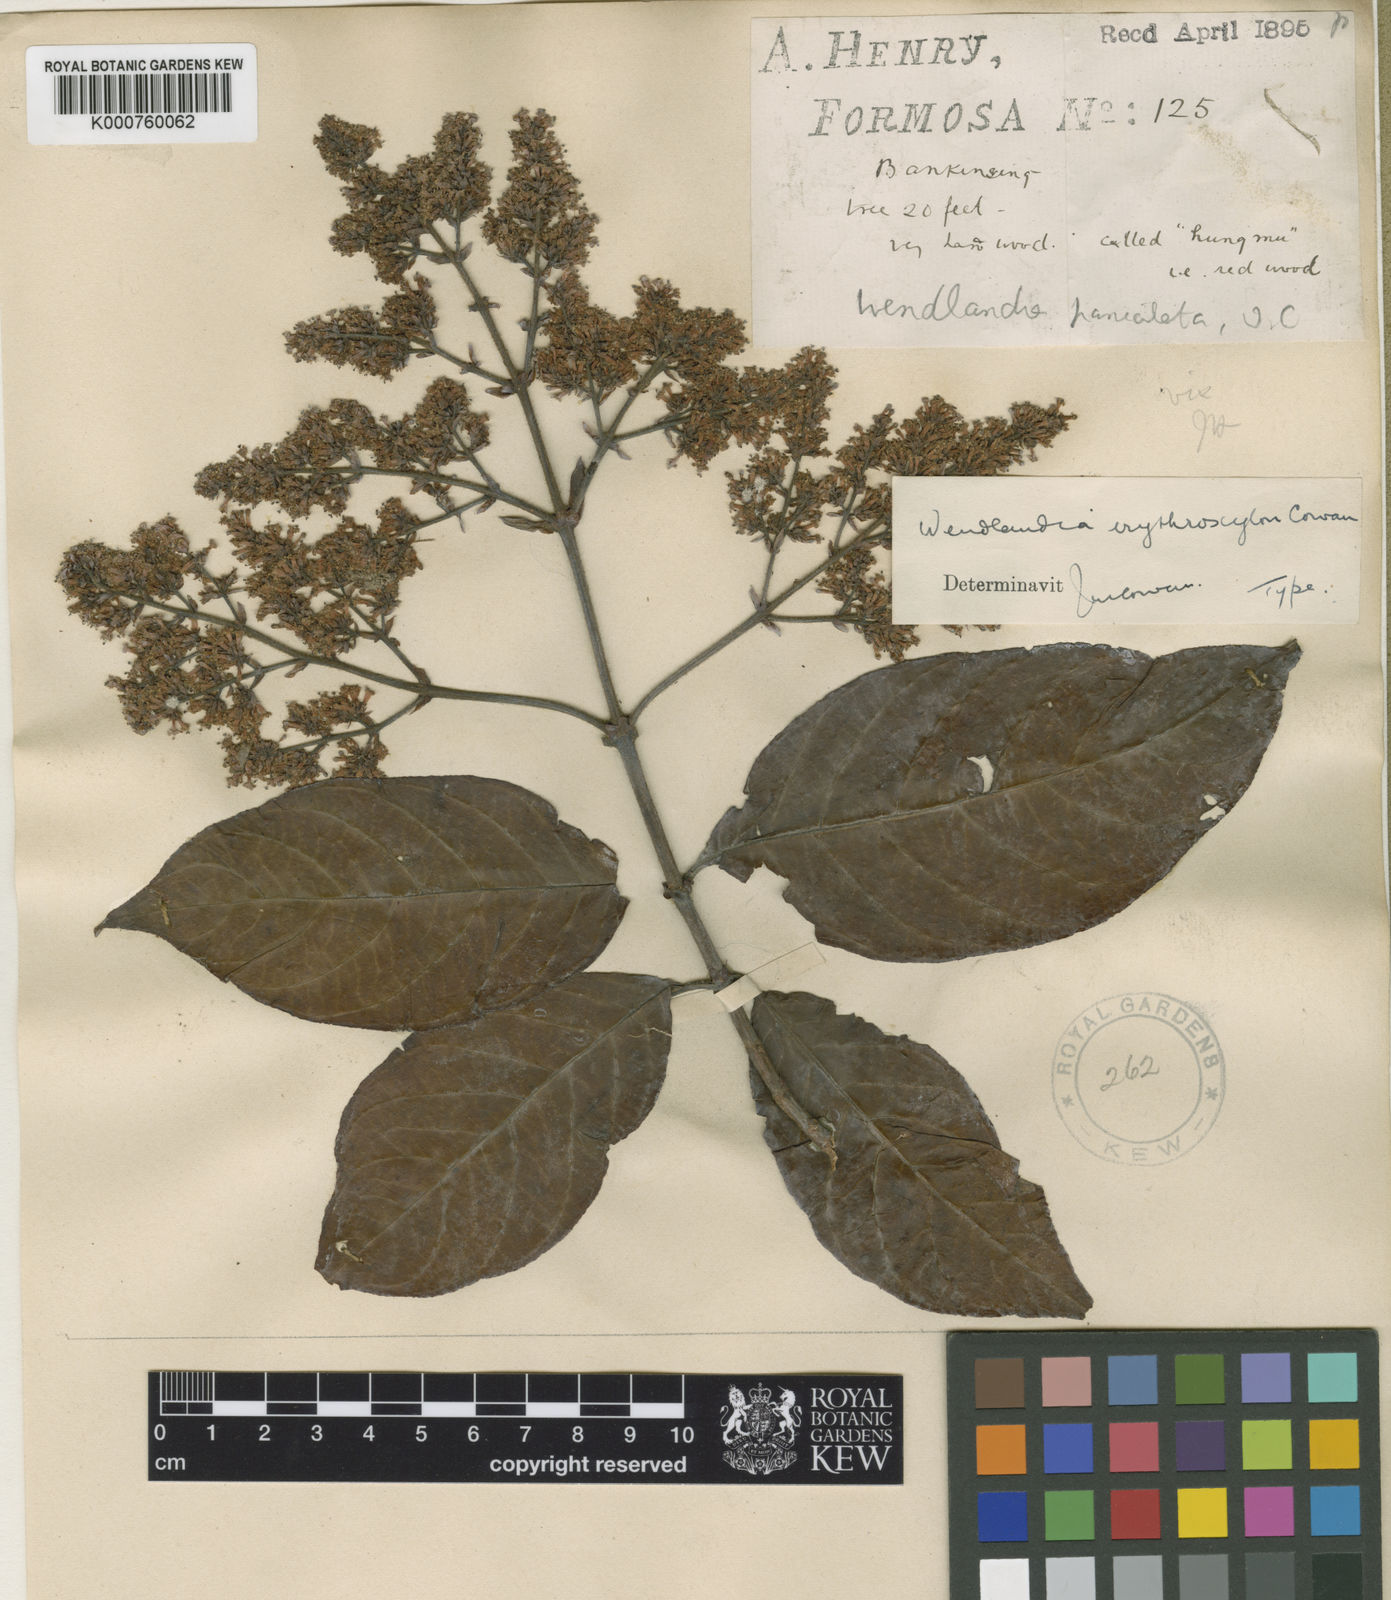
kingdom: Plantae
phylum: Tracheophyta
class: Magnoliopsida
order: Gentianales
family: Rubiaceae
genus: Wendlandia
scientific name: Wendlandia erythroxylon
